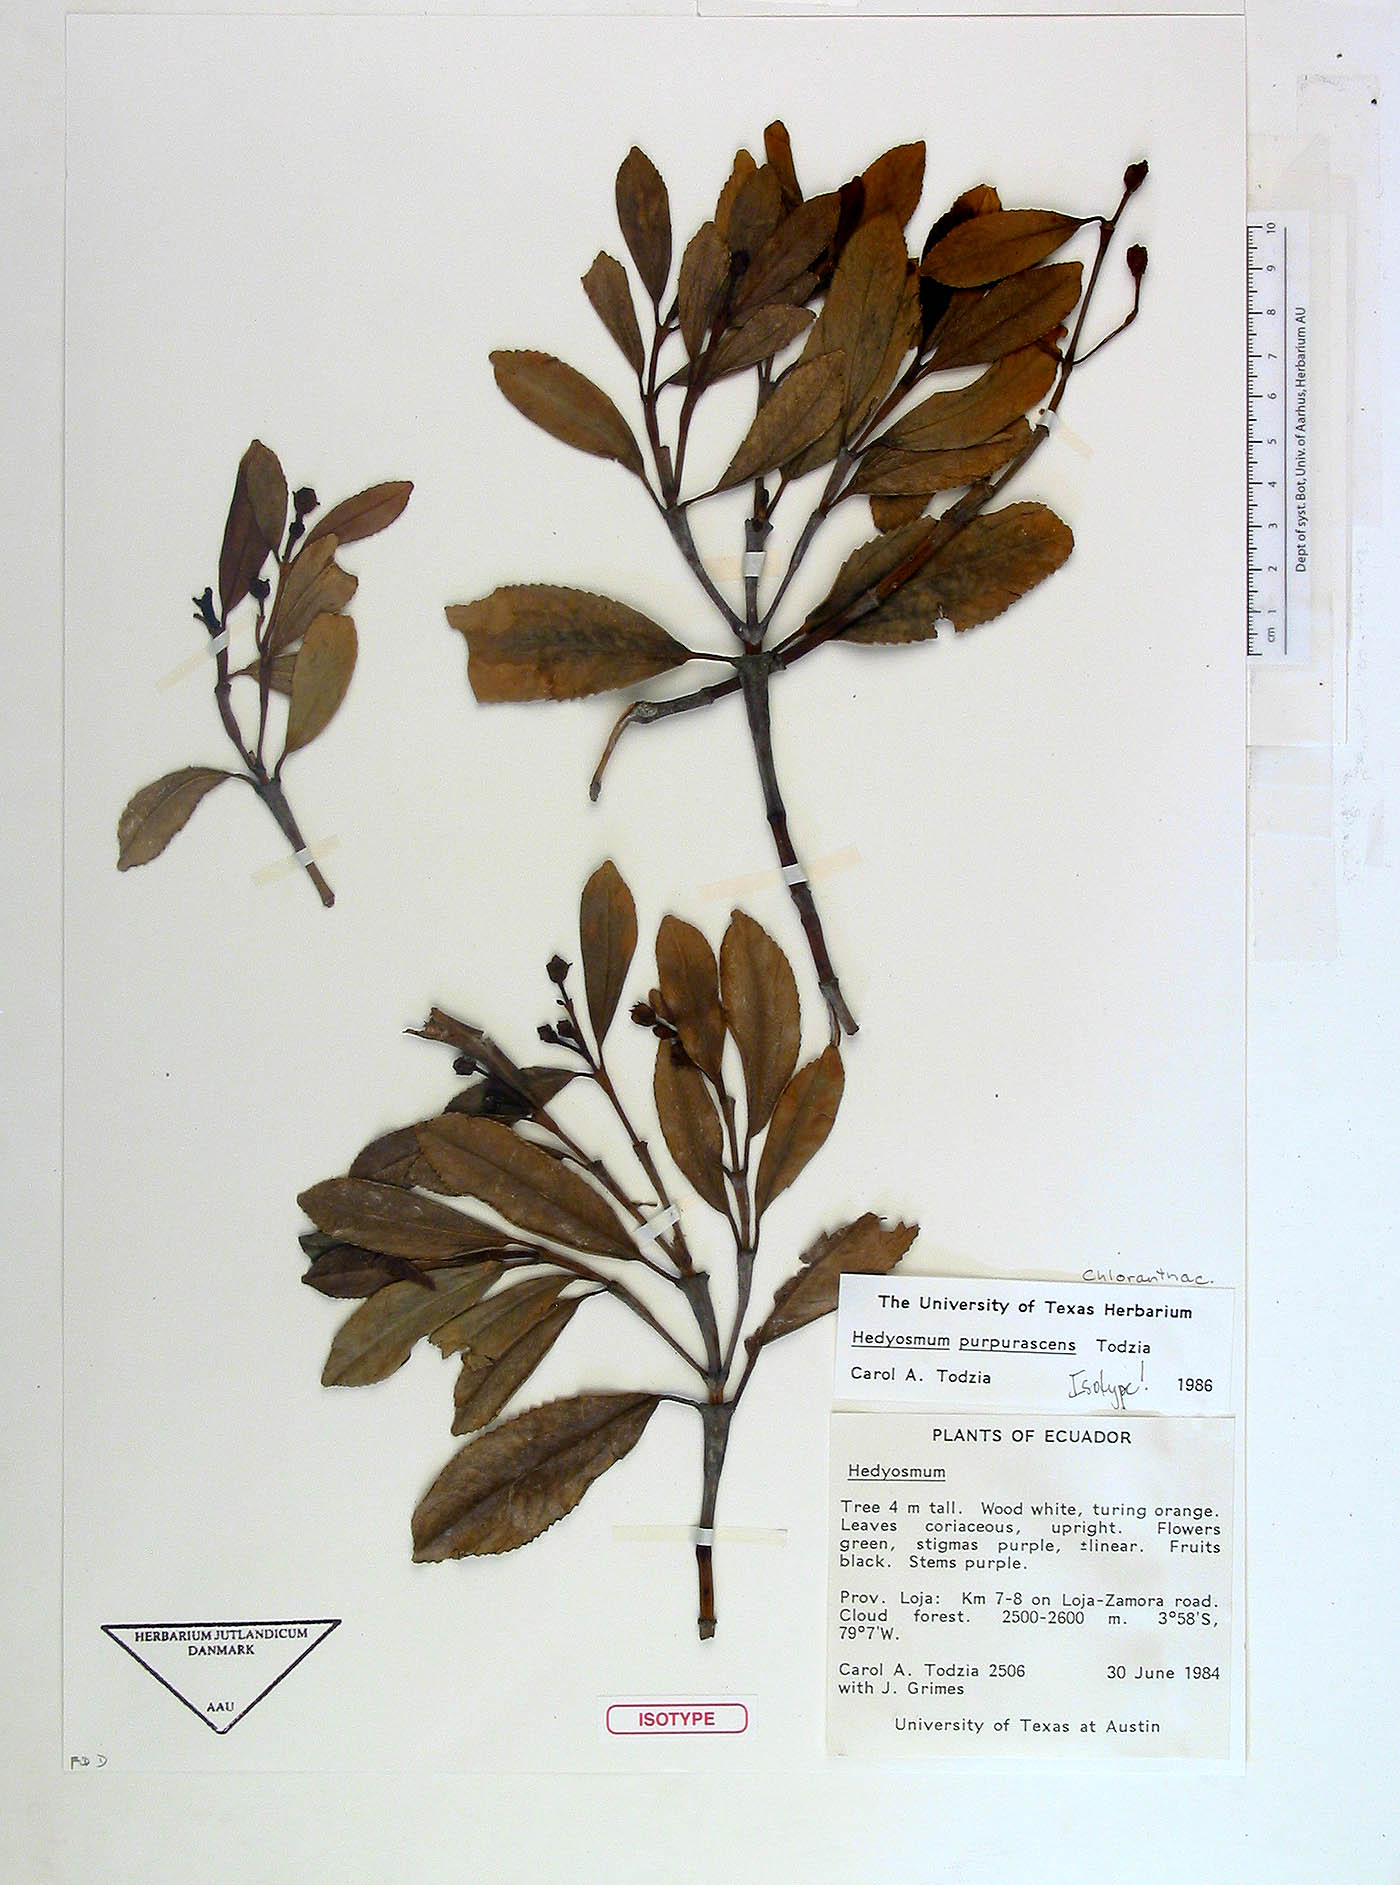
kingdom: Plantae
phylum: Tracheophyta
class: Magnoliopsida
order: Chloranthales
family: Chloranthaceae
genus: Hedyosmum
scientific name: Hedyosmum purpurascens
